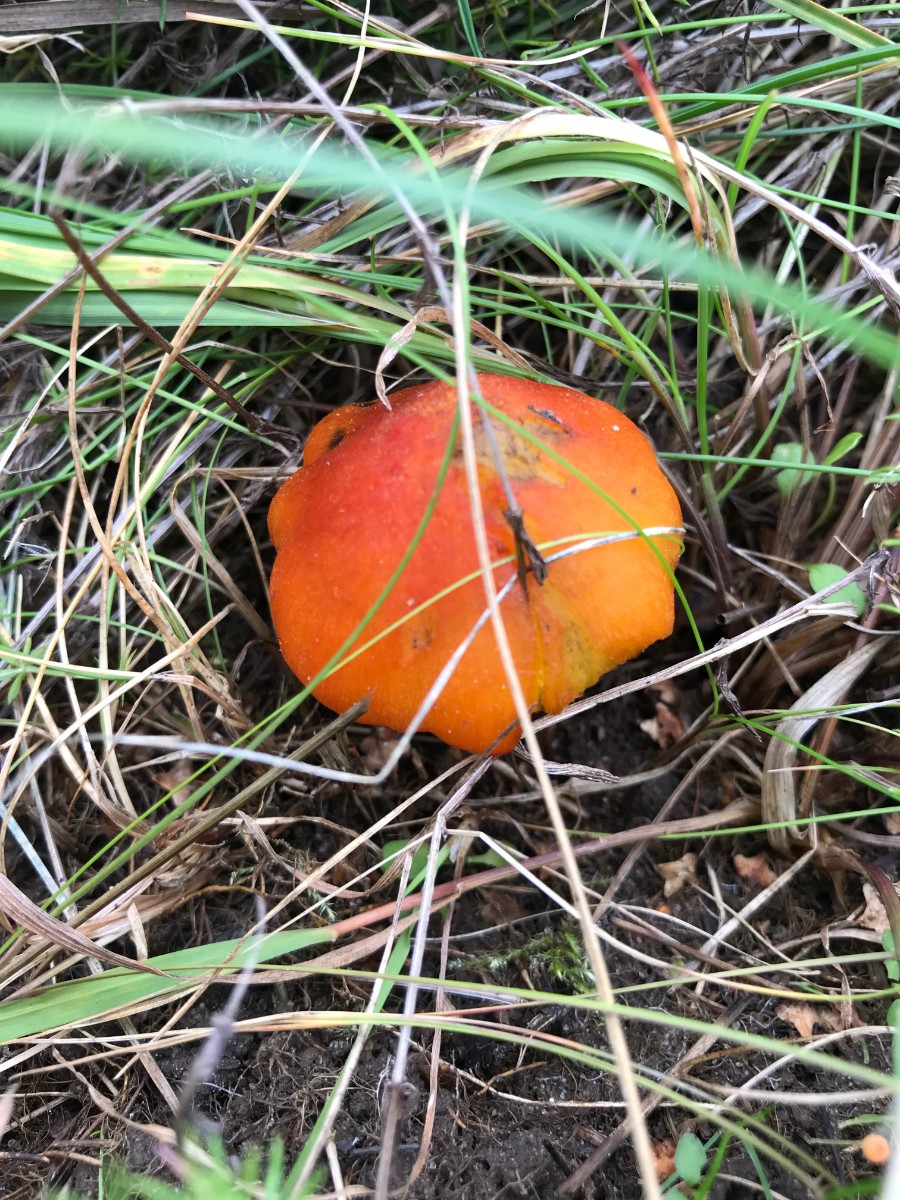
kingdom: Fungi
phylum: Basidiomycota
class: Agaricomycetes
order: Agaricales
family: Hygrophoraceae
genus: Hygrocybe
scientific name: Hygrocybe conica
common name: kegle-vokshat
